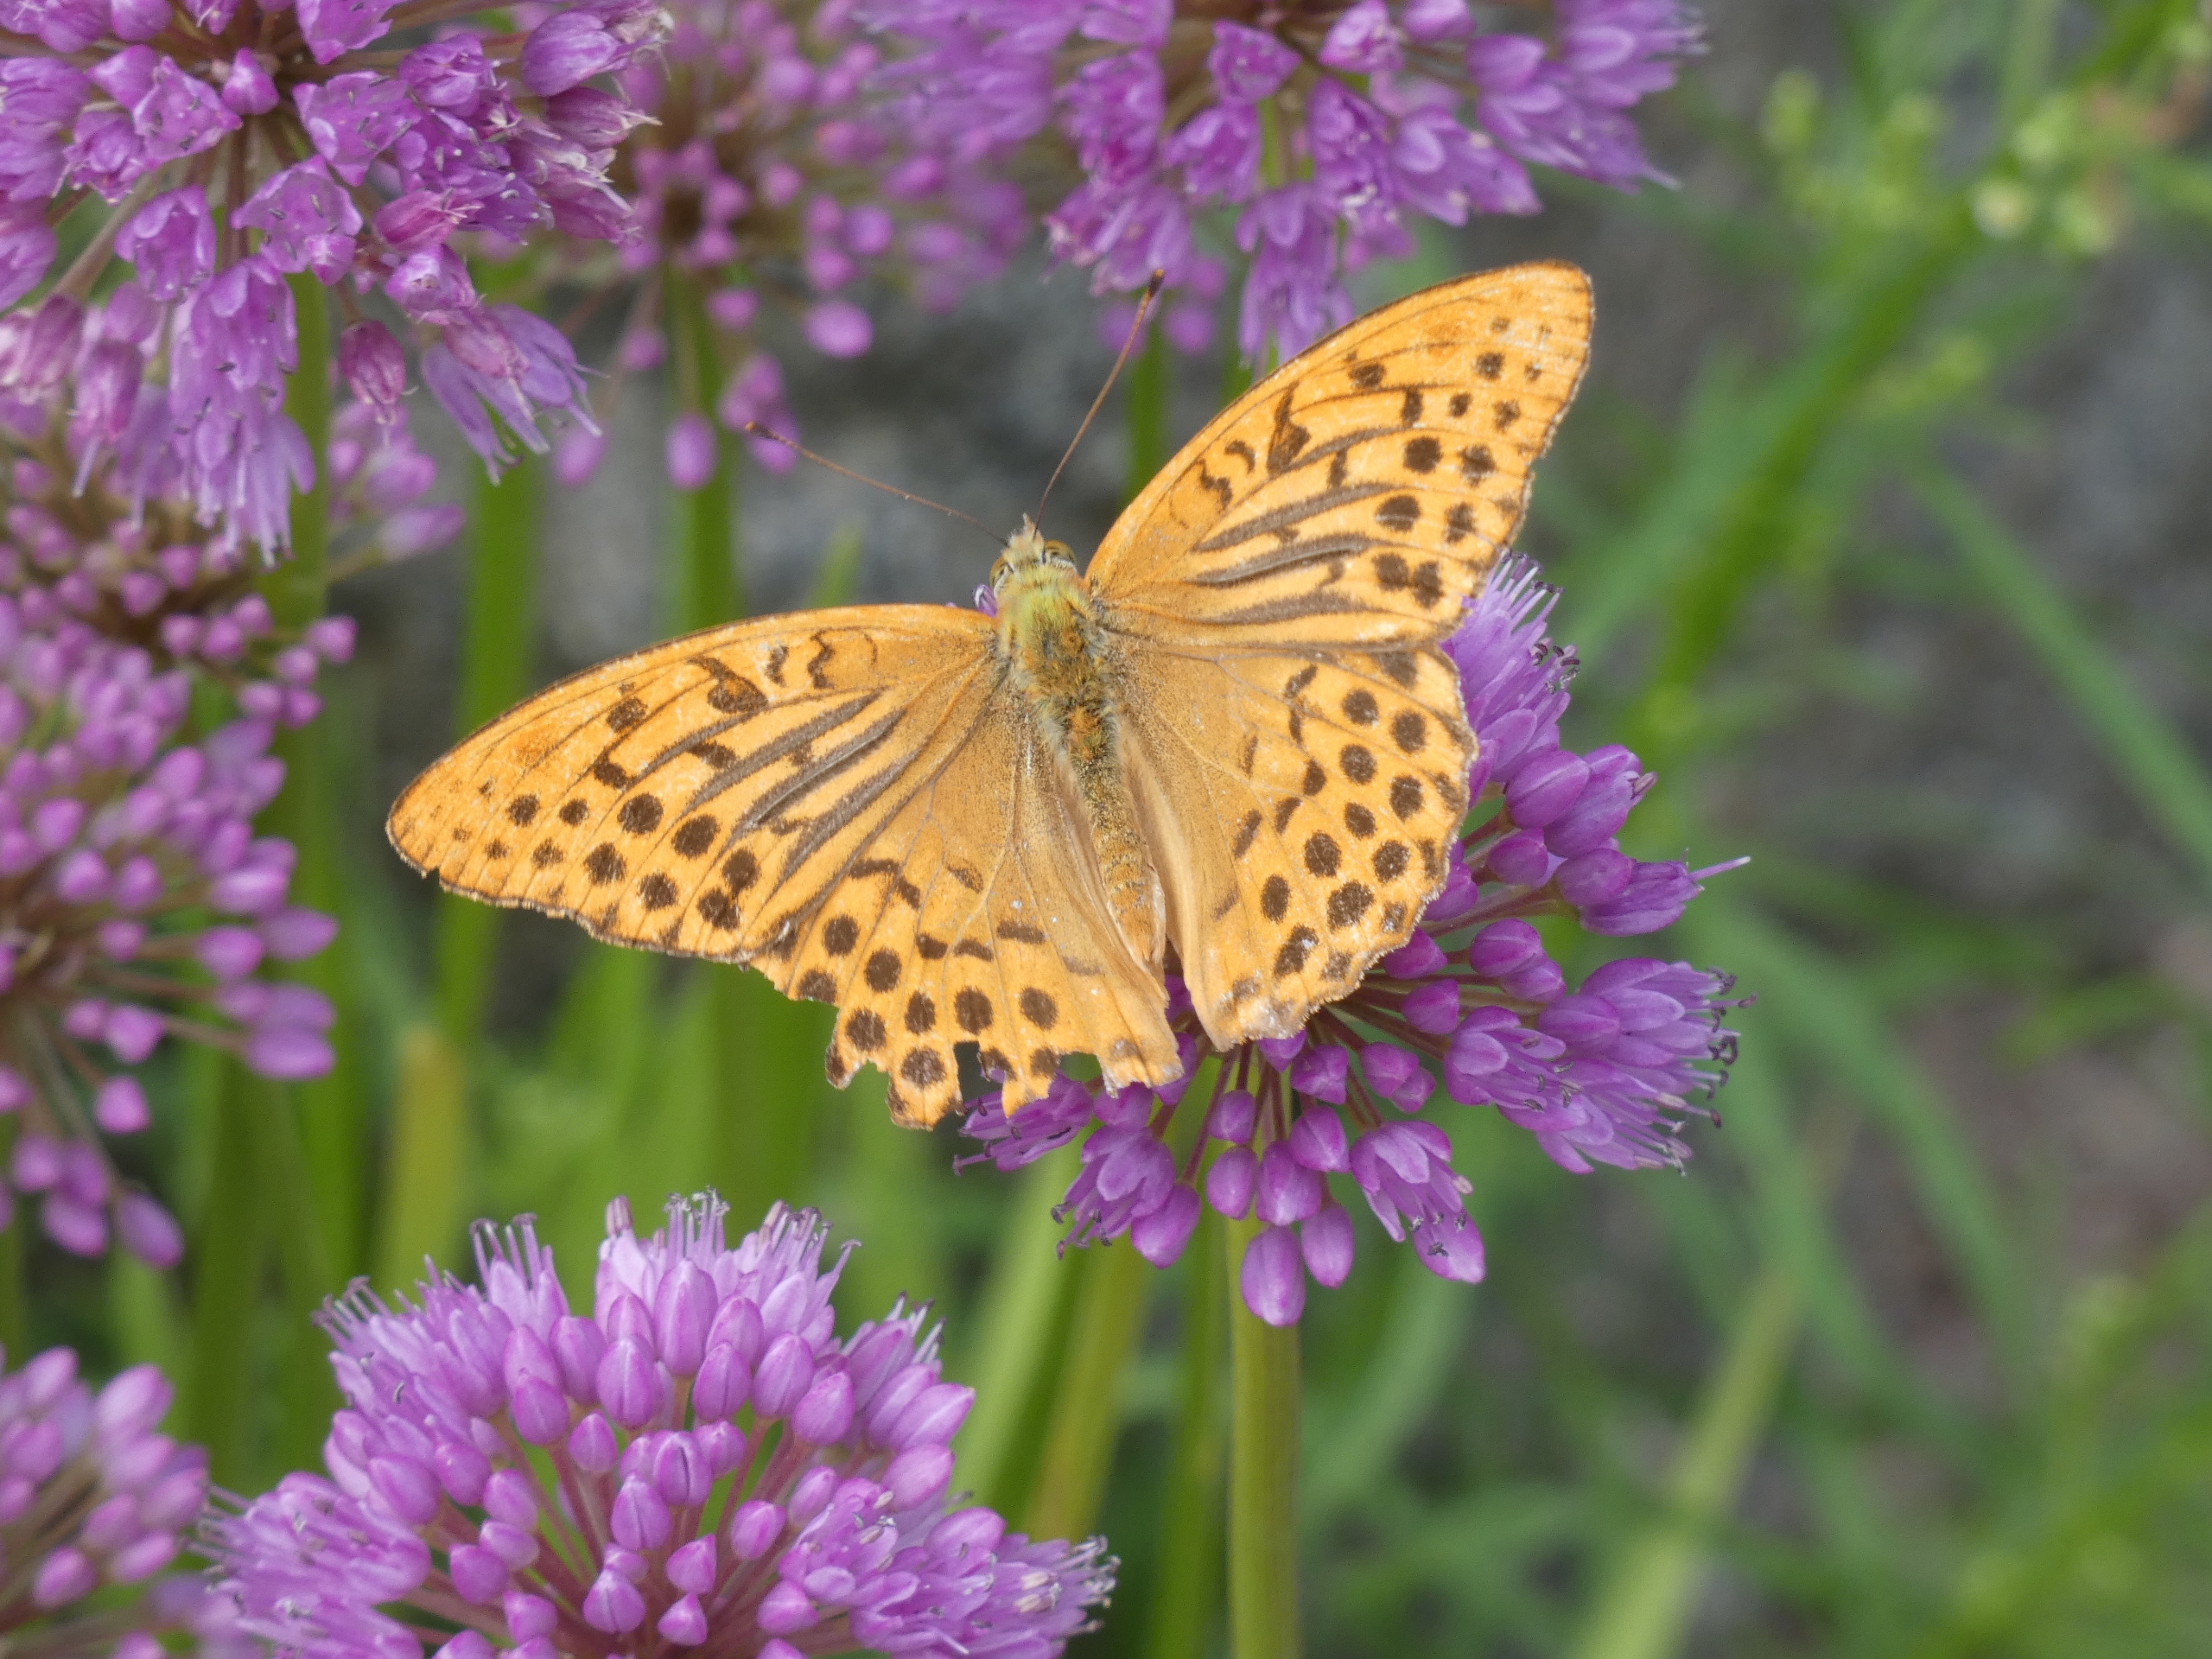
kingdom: Animalia
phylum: Arthropoda
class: Insecta
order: Lepidoptera
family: Nymphalidae
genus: Argynnis
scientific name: Argynnis paphia
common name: Kejserkåbe
